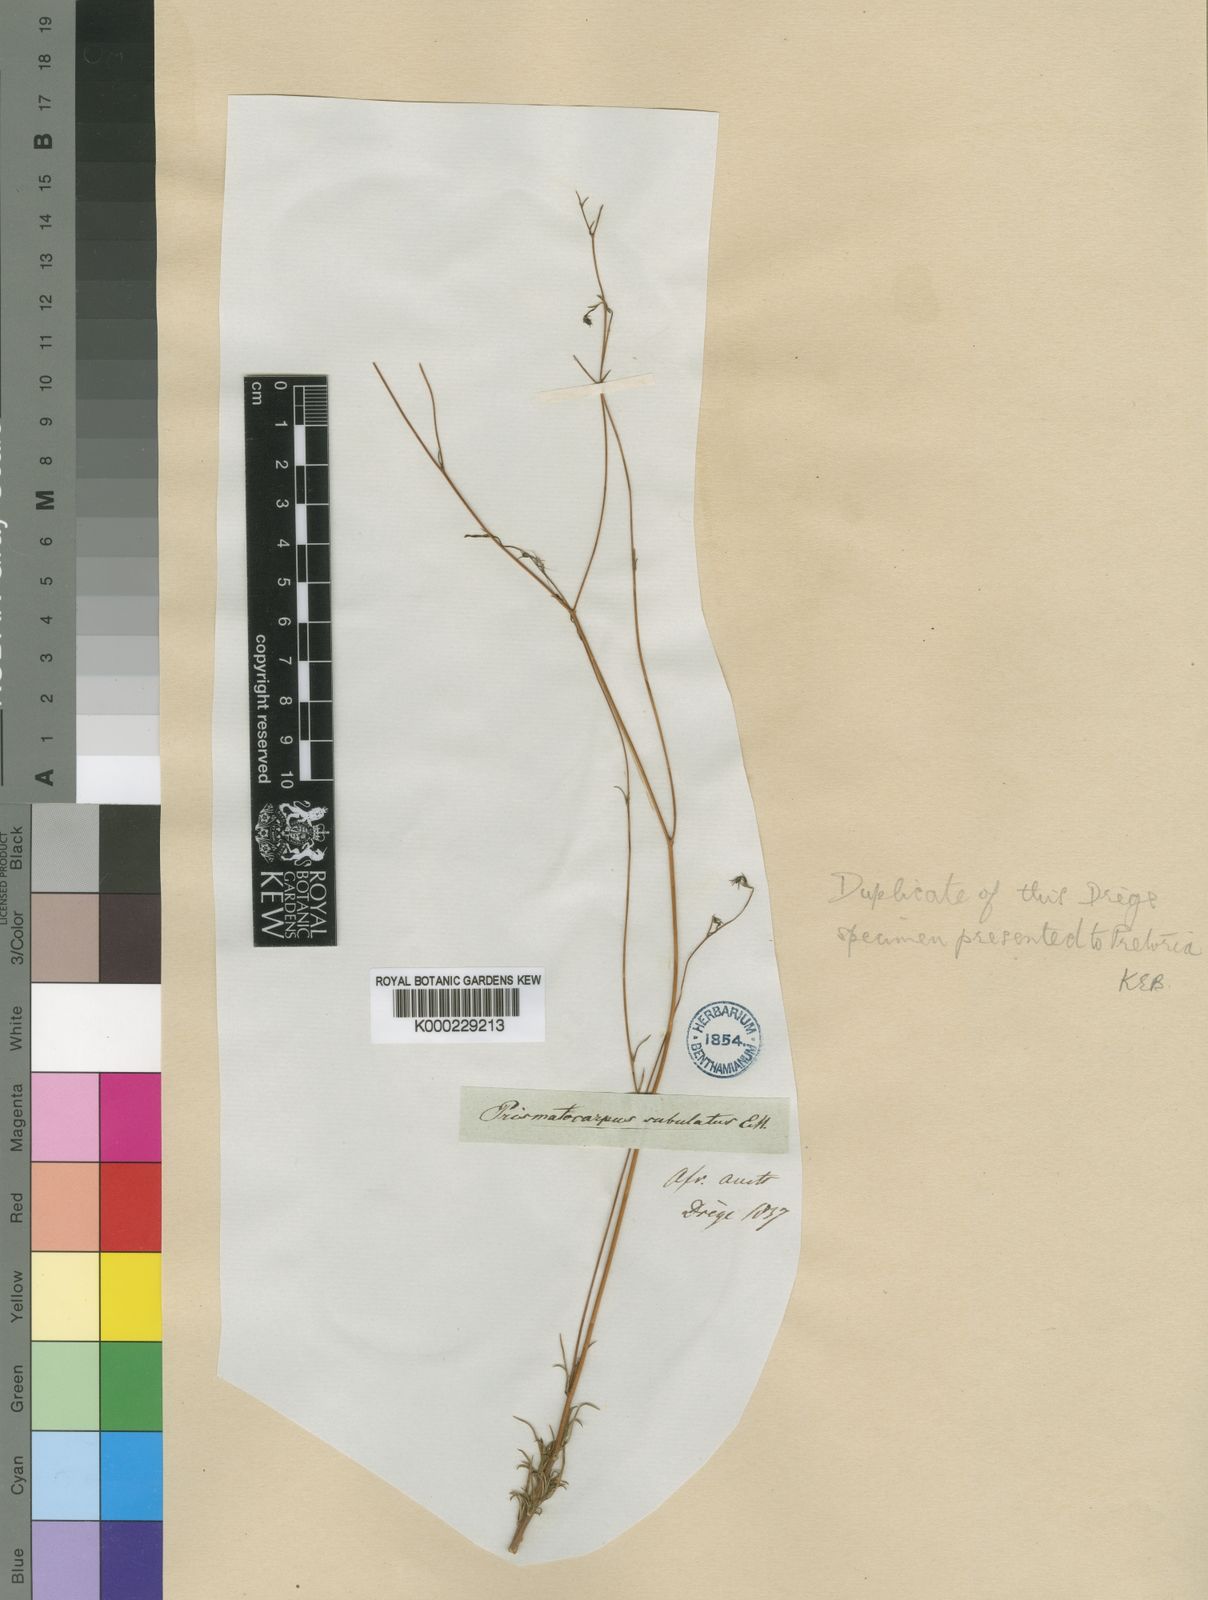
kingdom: Plantae
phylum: Tracheophyta
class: Magnoliopsida
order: Asterales
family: Campanulaceae
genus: Prismatocarpus
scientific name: Prismatocarpus fruticosus
